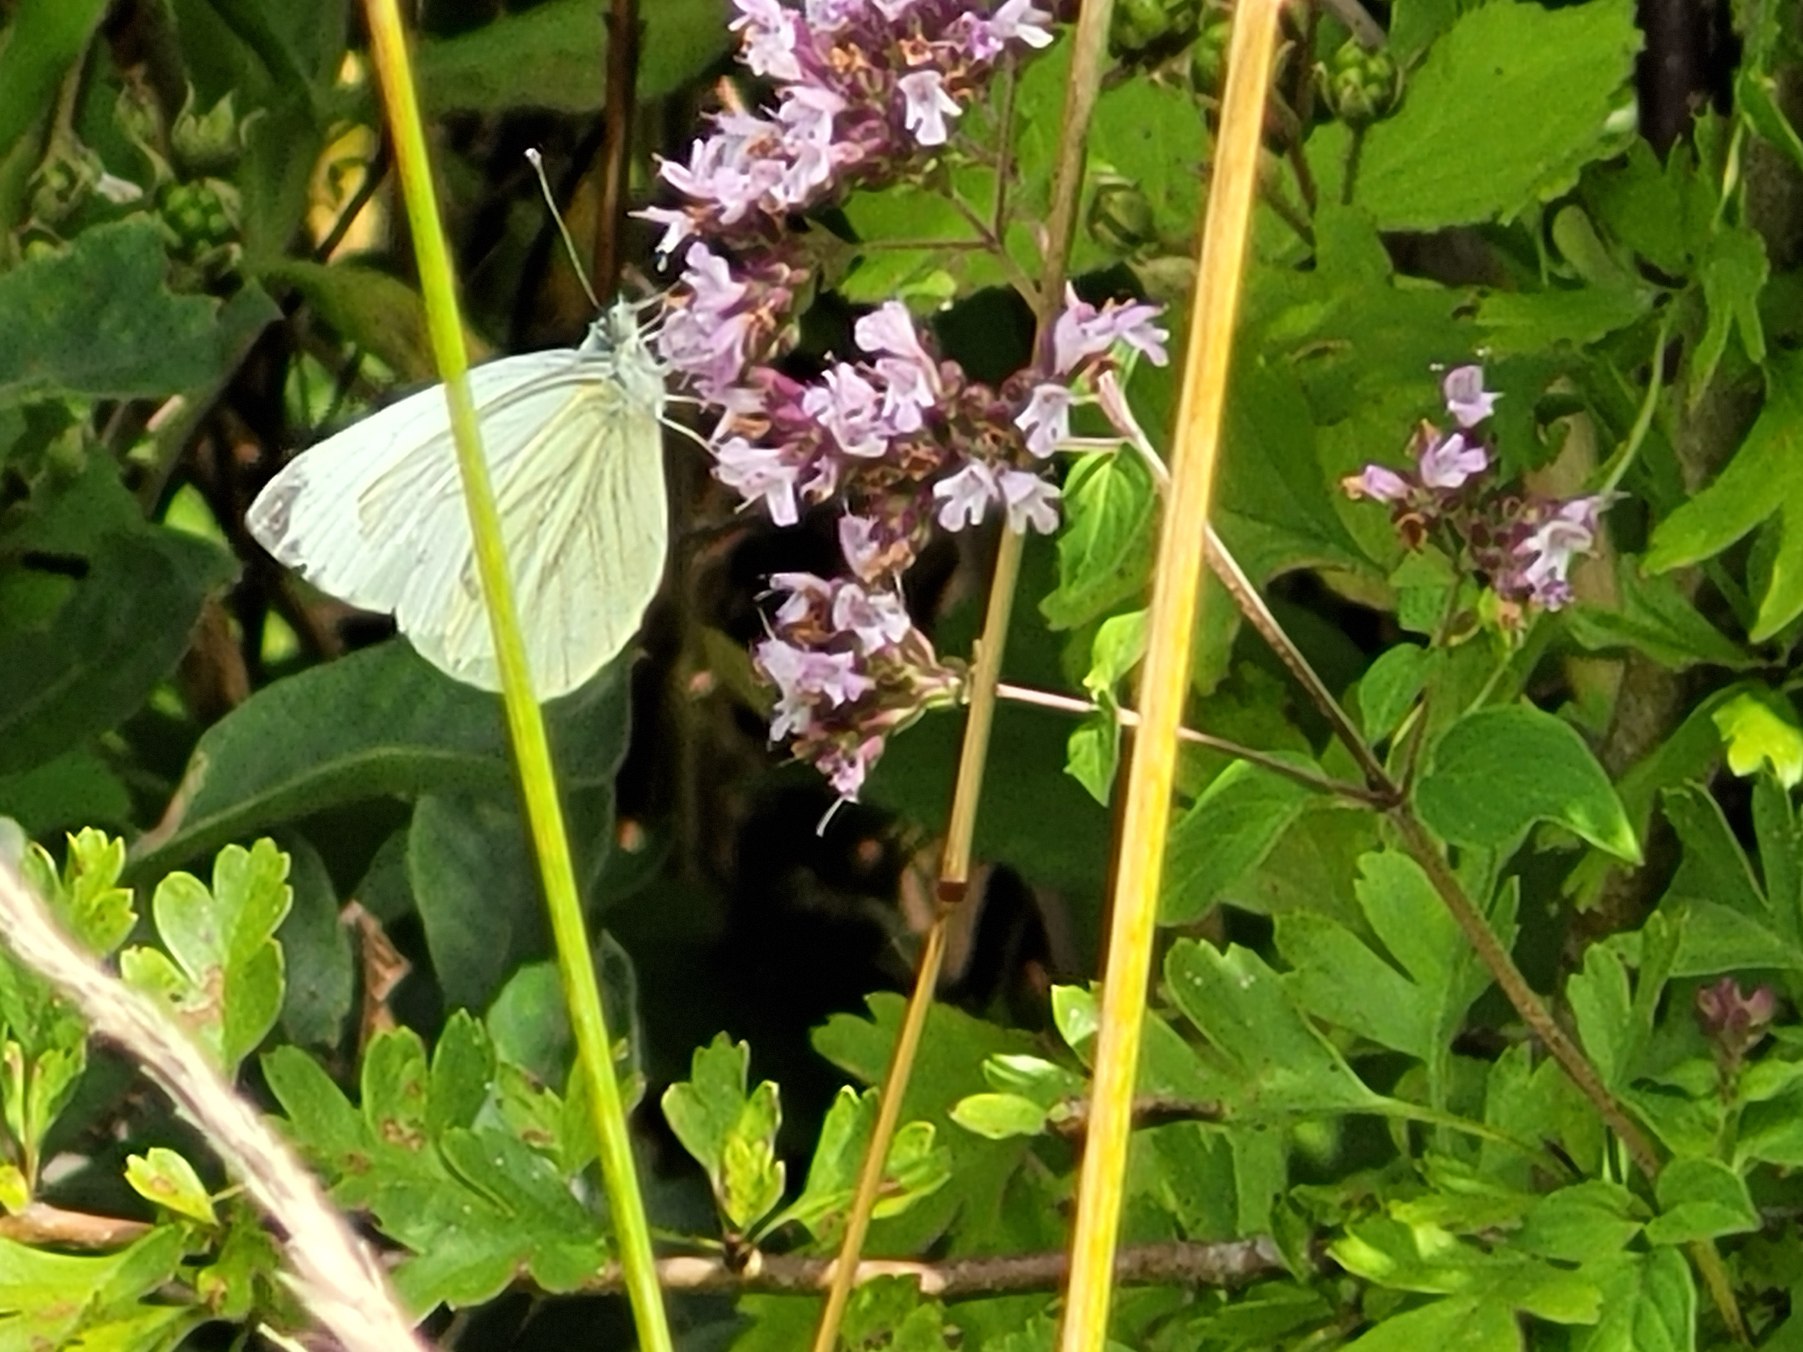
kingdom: Animalia
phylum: Arthropoda
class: Insecta
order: Lepidoptera
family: Pieridae
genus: Pieris
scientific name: Pieris napi
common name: Grønåret kålsommerfugl
